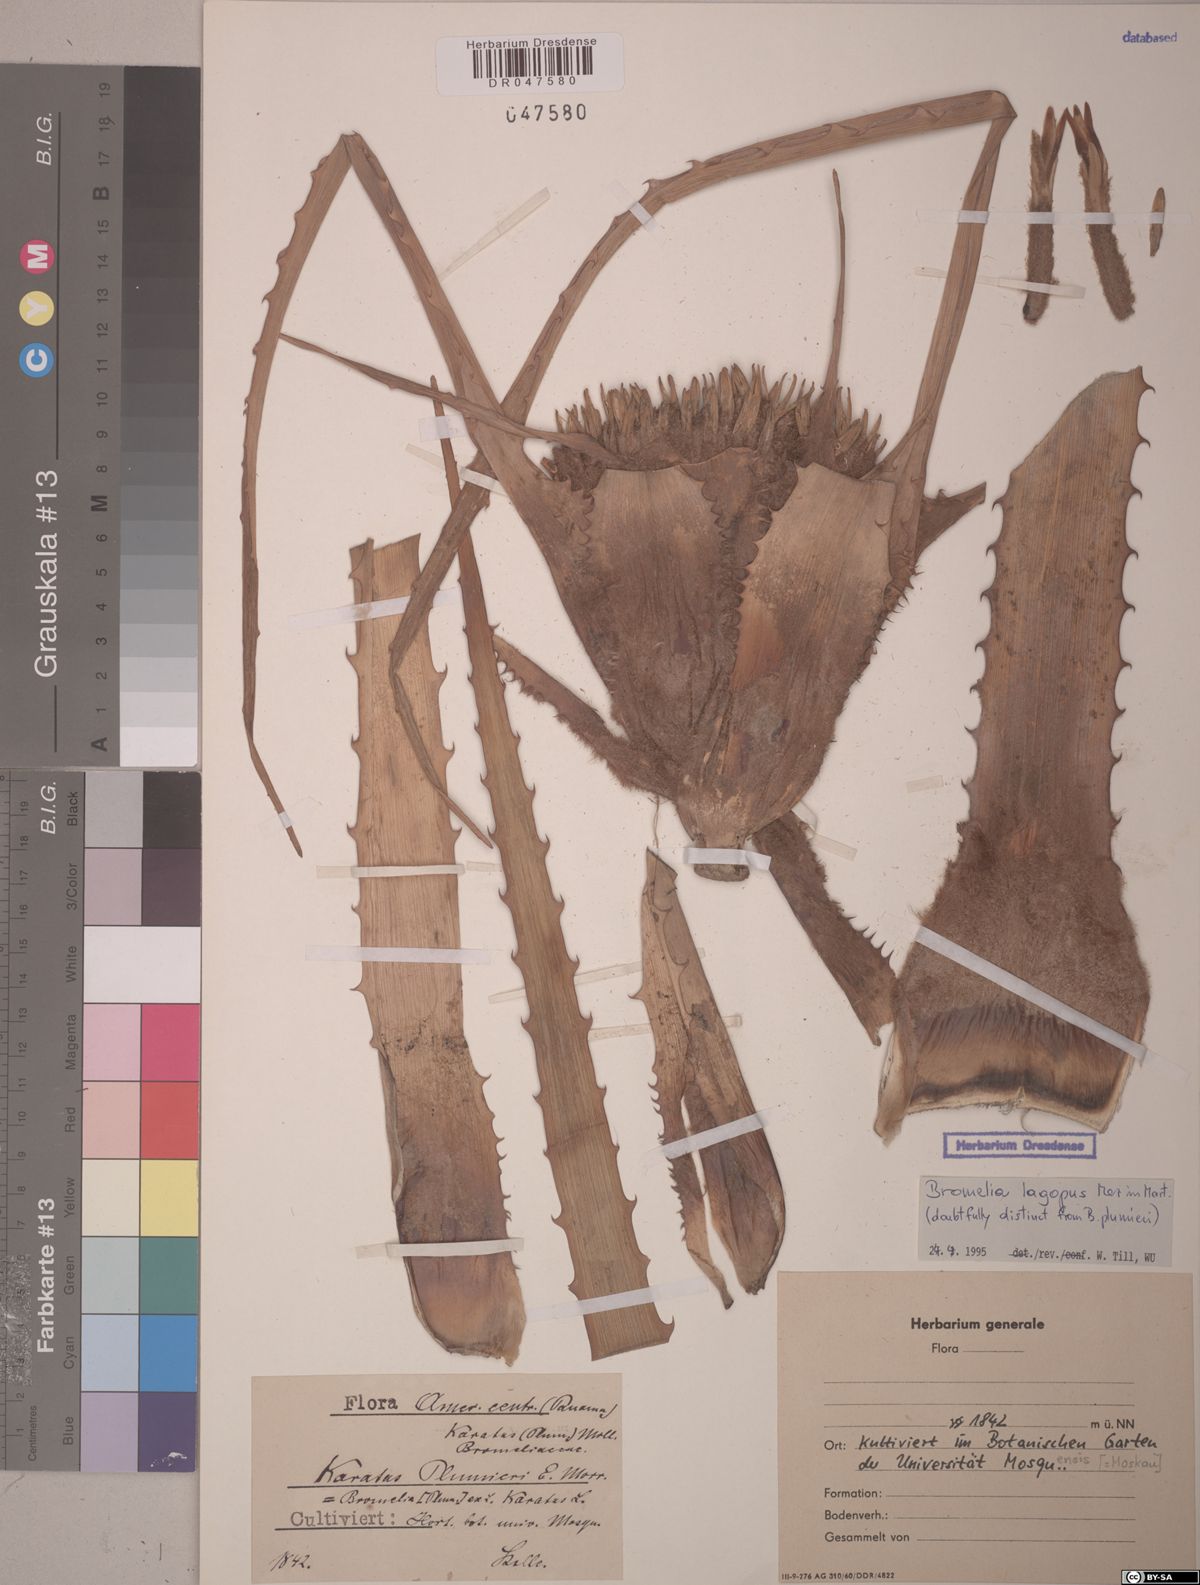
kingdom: Plantae
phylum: Tracheophyta
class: Liliopsida
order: Poales
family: Bromeliaceae
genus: Bromelia
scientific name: Bromelia lagopus
